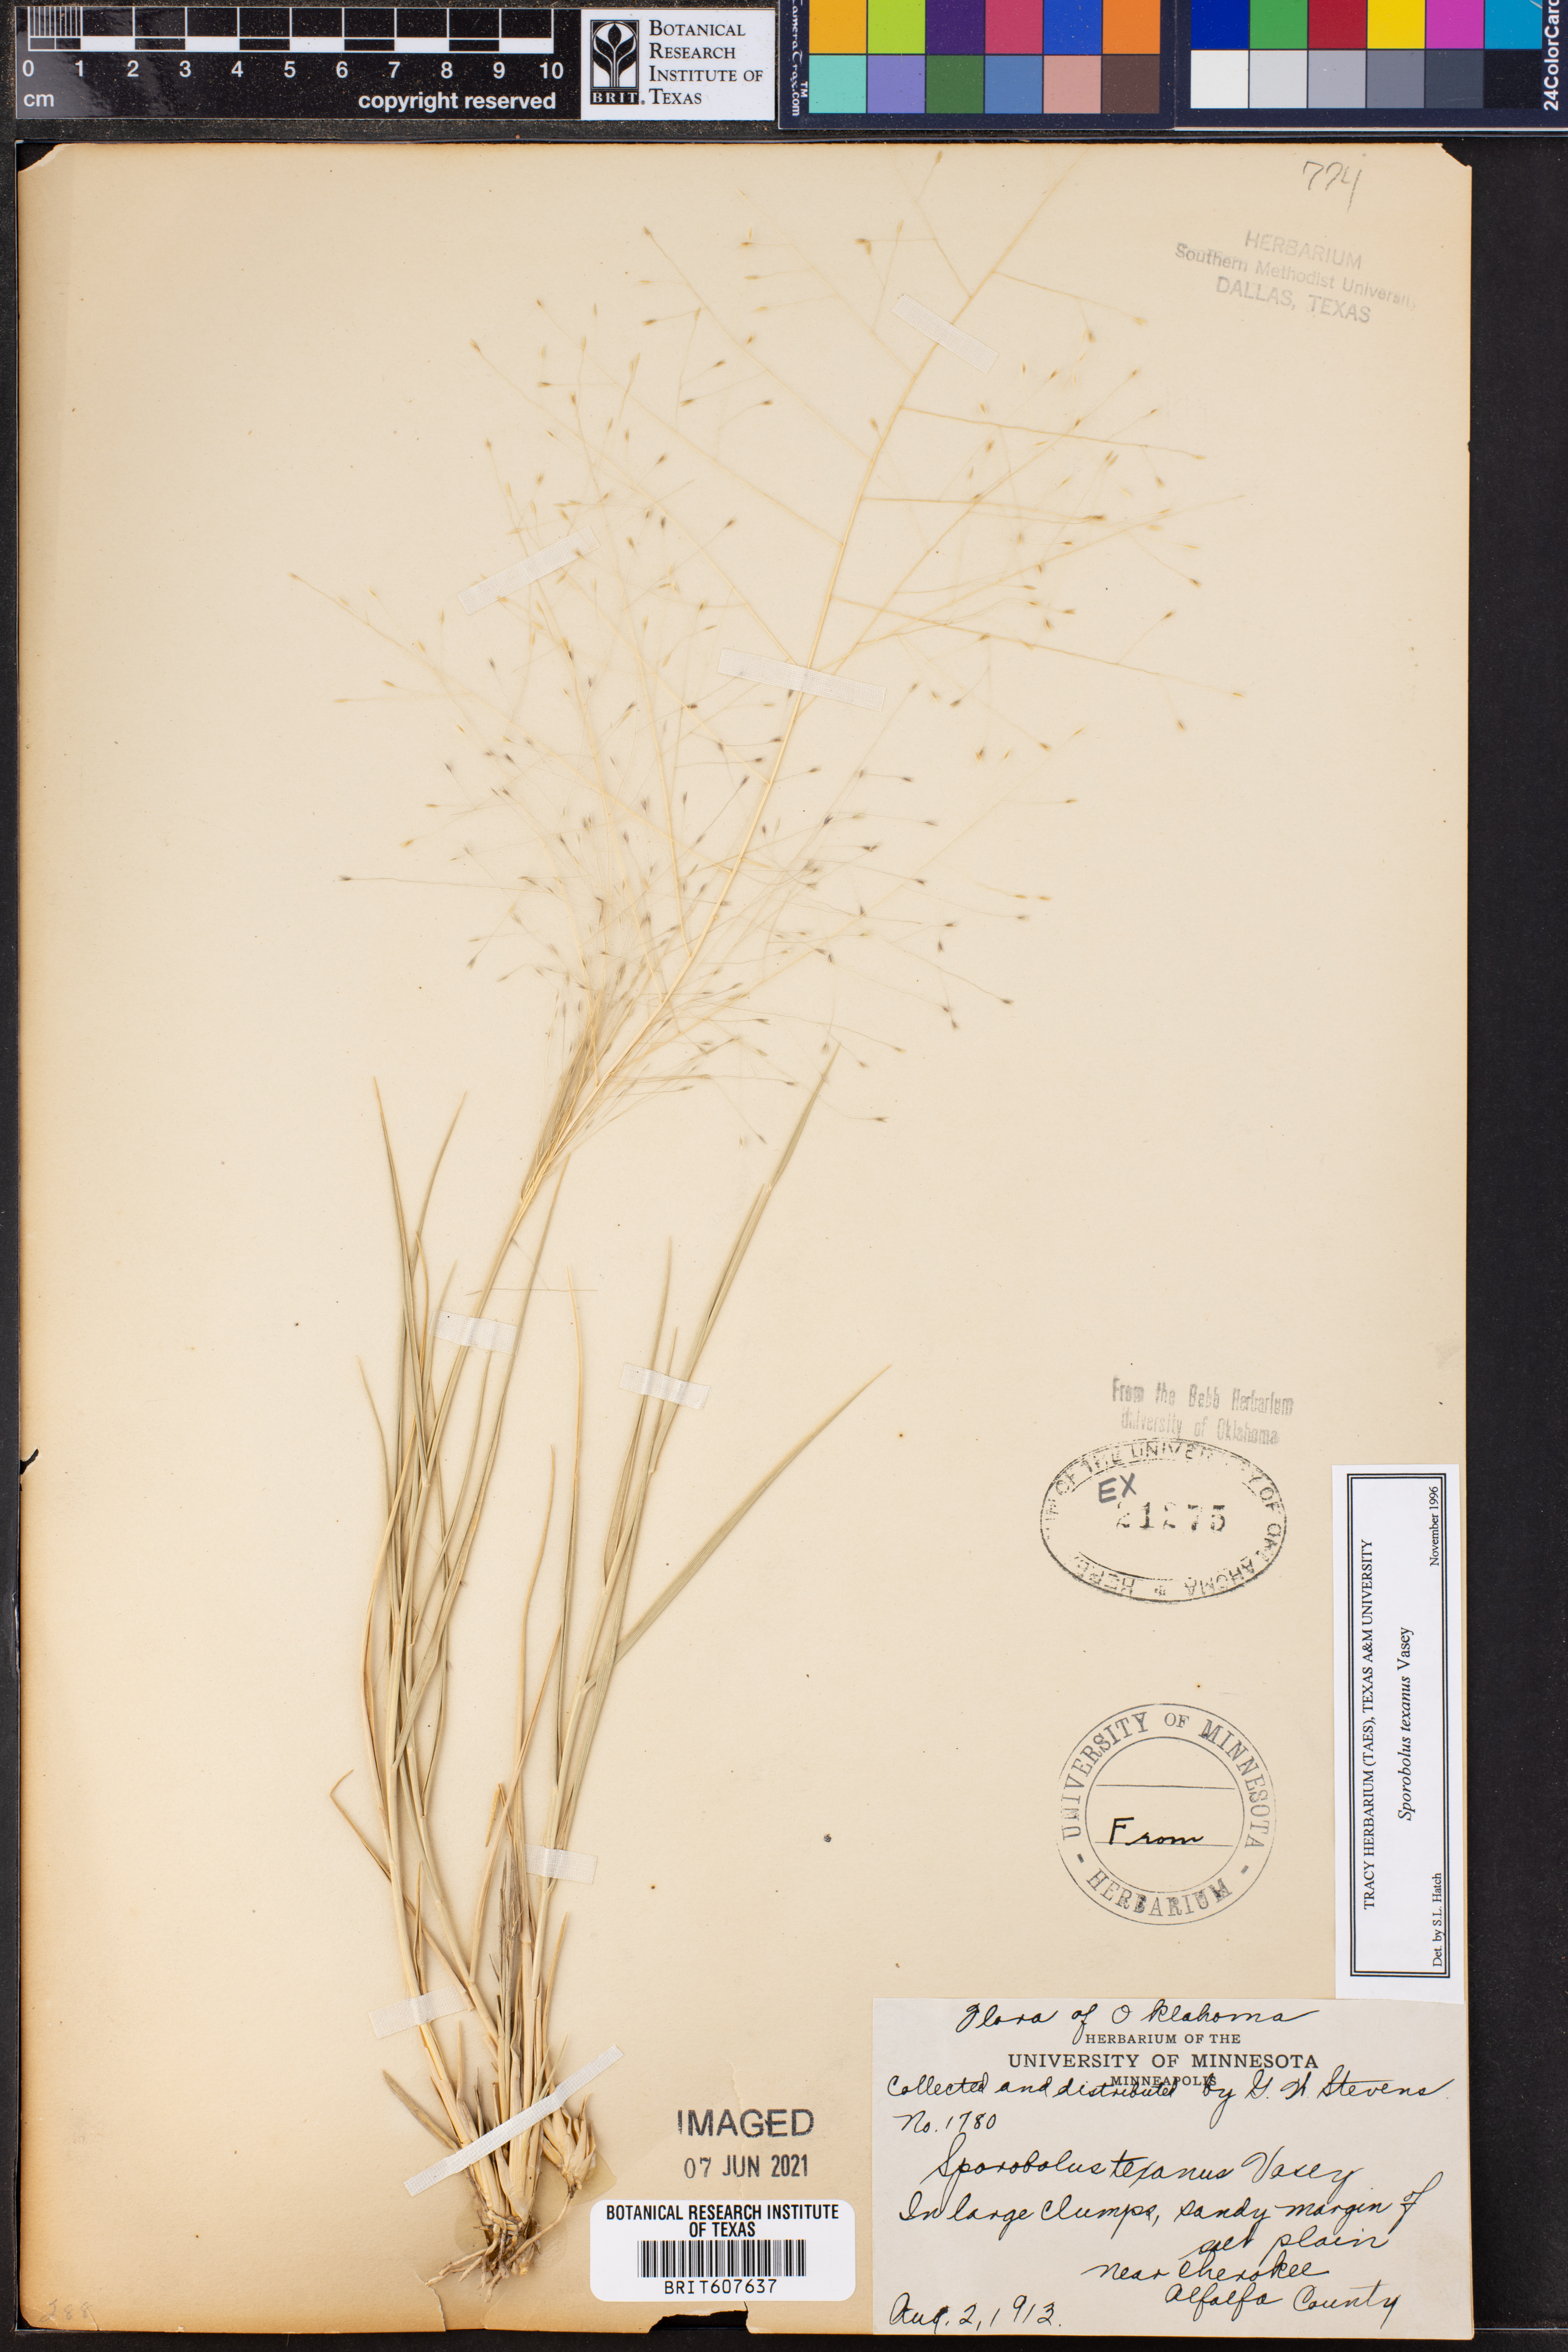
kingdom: Plantae
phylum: Tracheophyta
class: Liliopsida
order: Poales
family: Poaceae
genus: Sporobolus
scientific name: Sporobolus texanus
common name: Texas dropseed
